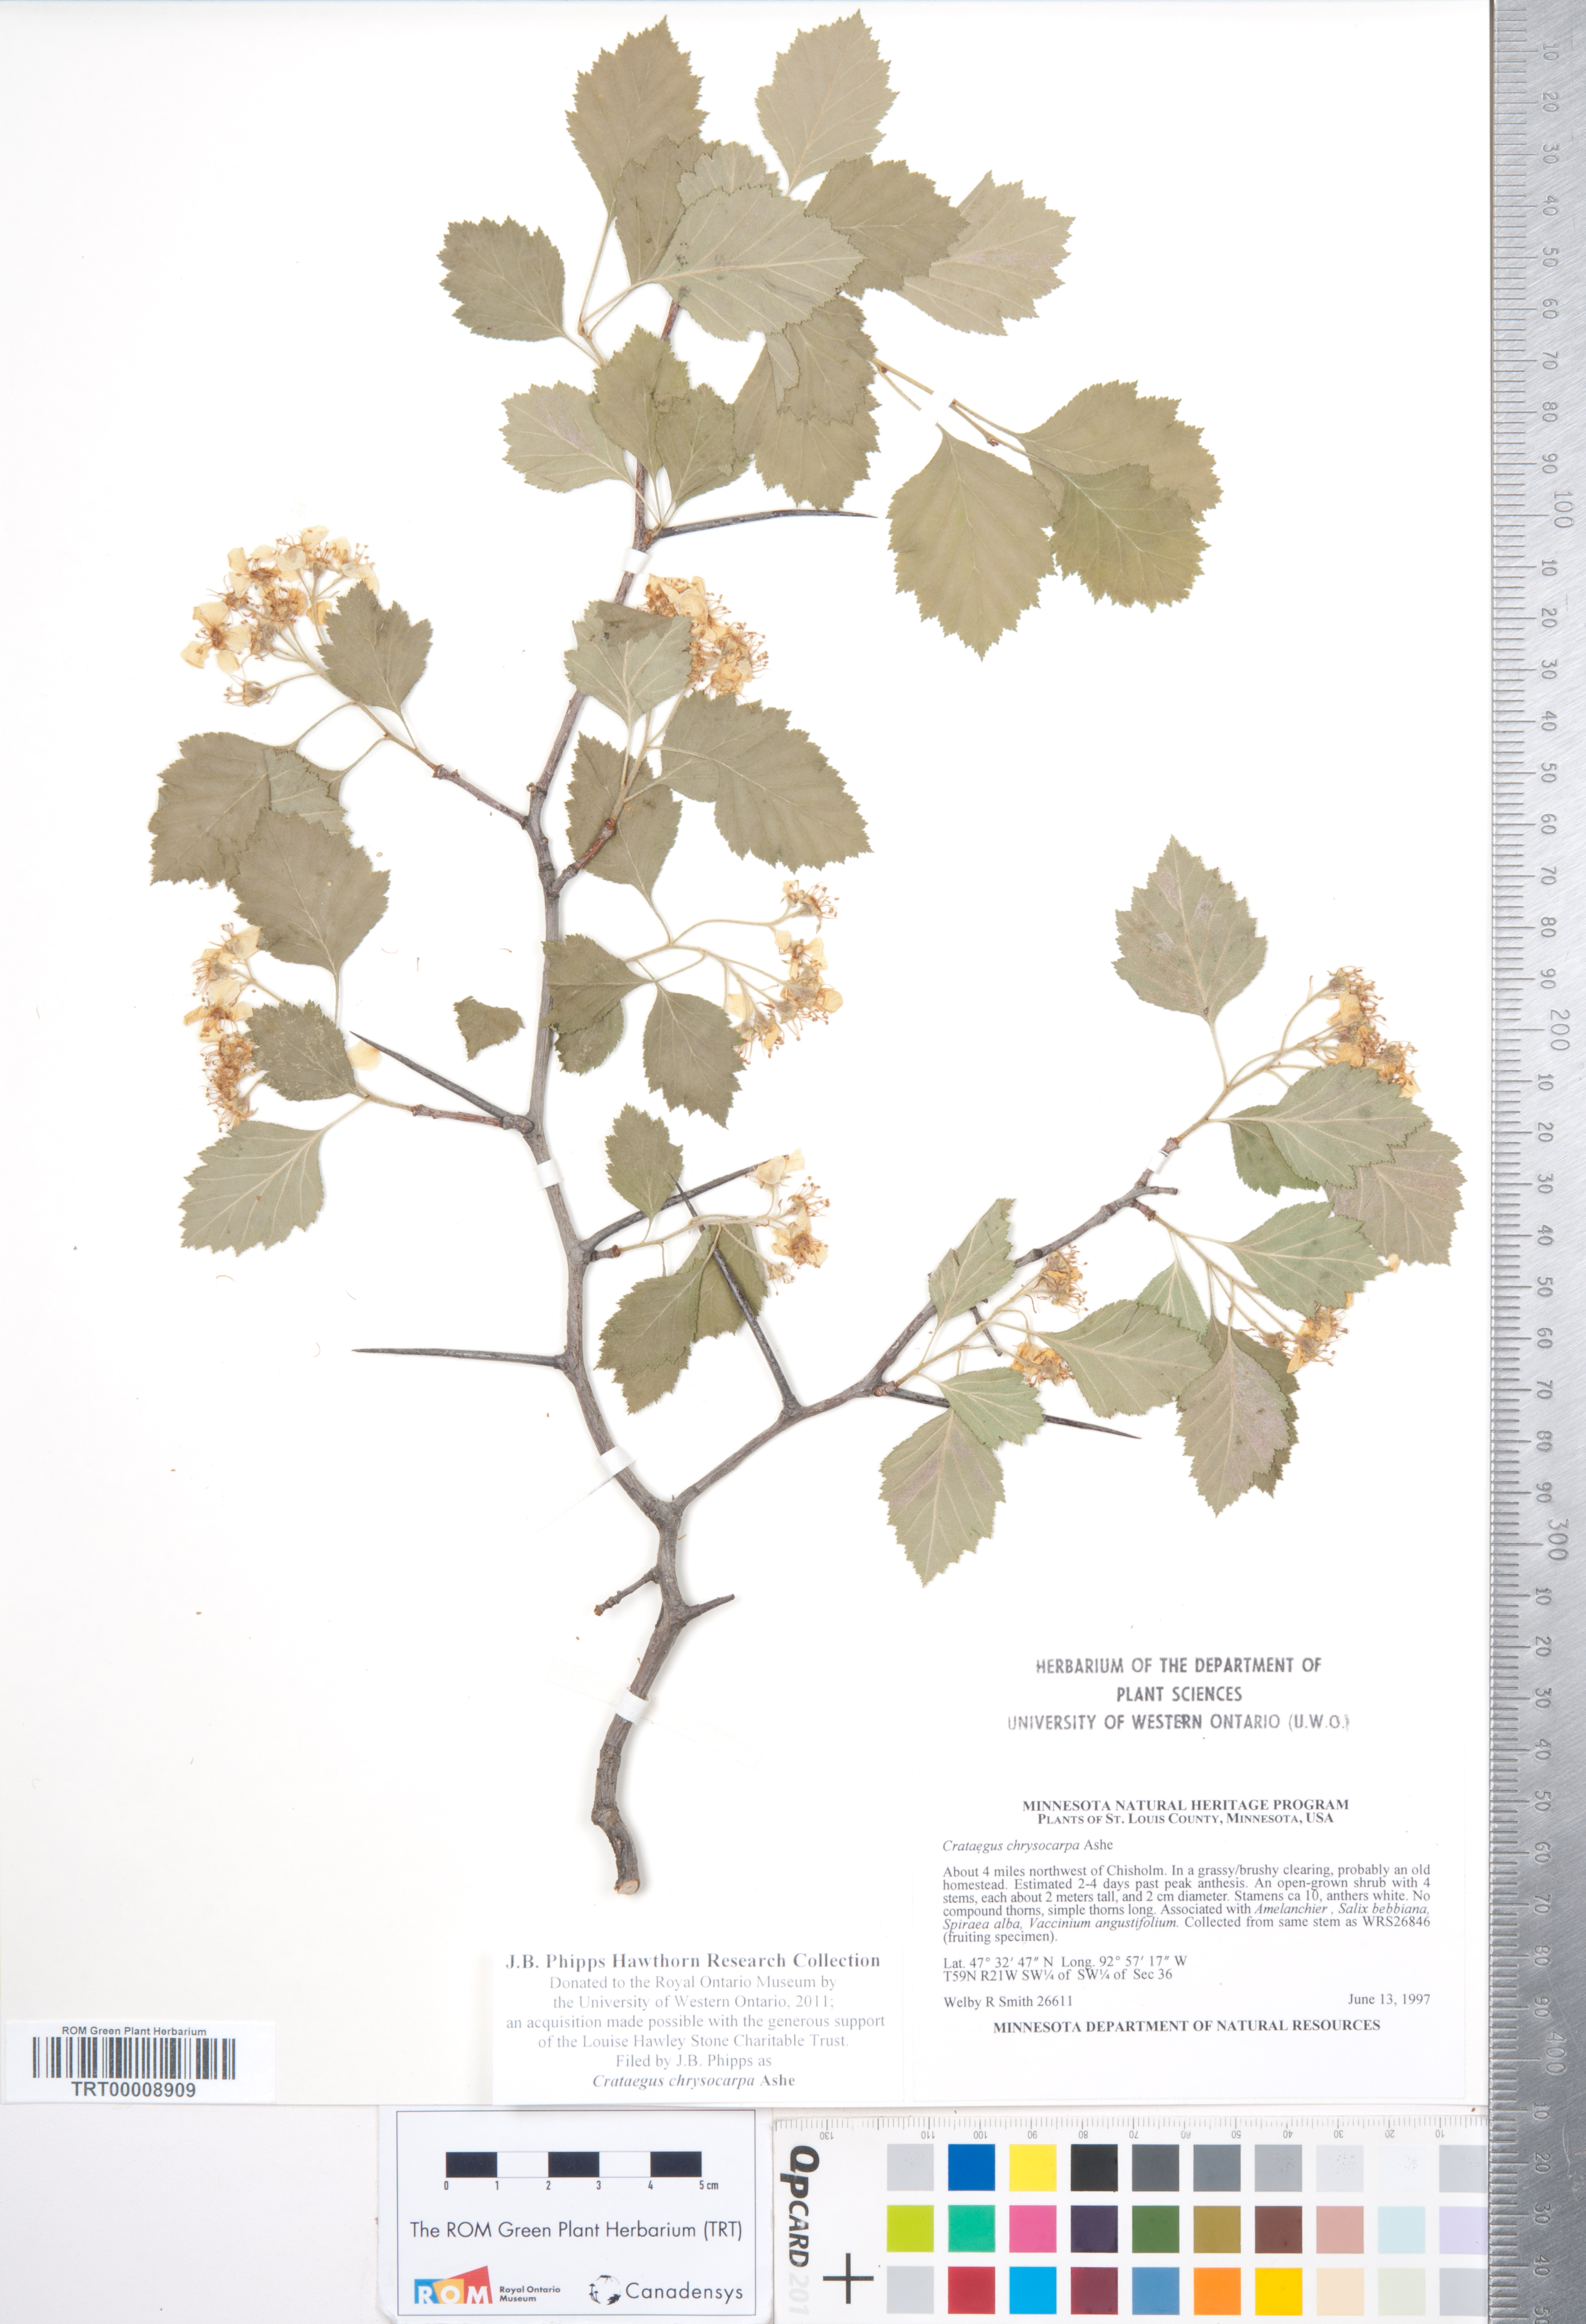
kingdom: Plantae
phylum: Tracheophyta
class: Magnoliopsida
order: Rosales
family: Rosaceae
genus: Crataegus
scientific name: Crataegus chrysocarpa
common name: Fire-berry hawthorn
